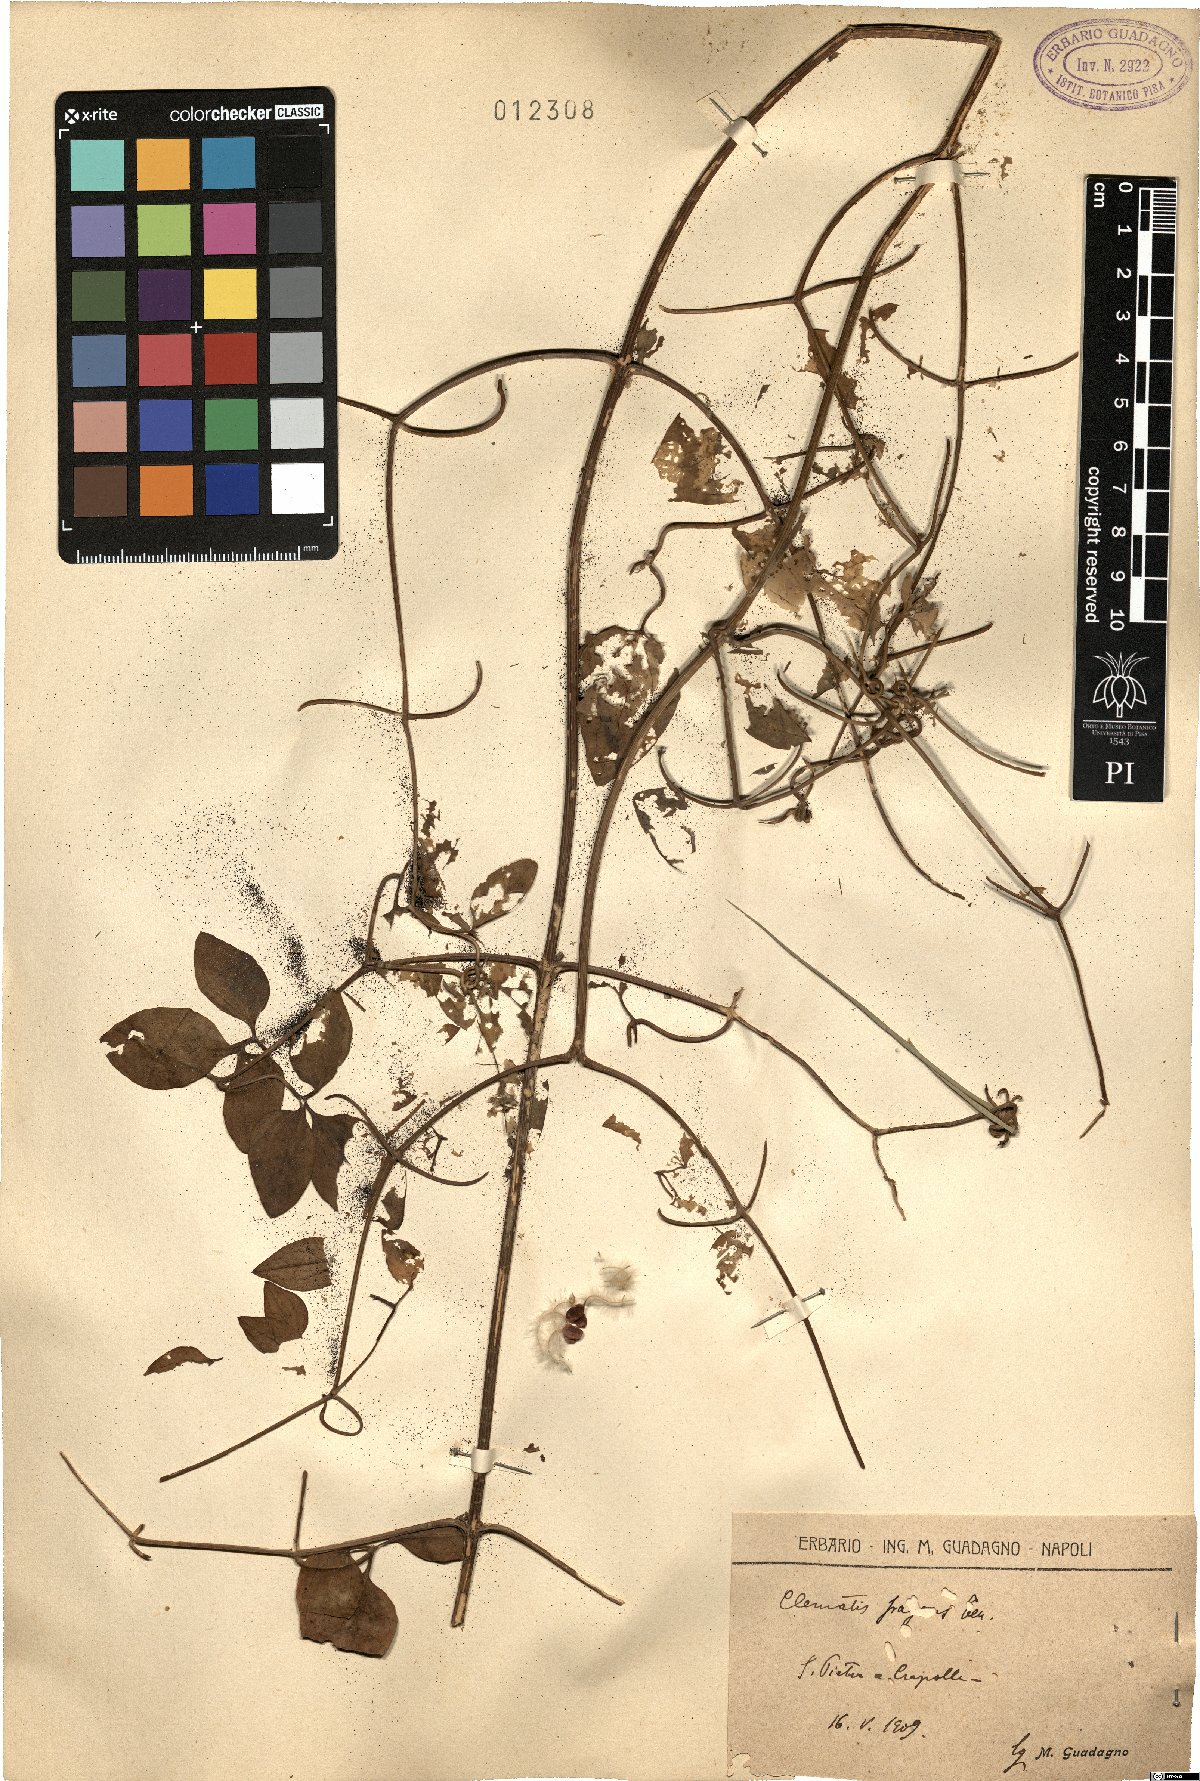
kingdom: Plantae
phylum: Tracheophyta
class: Magnoliopsida
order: Ranunculales
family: Ranunculaceae
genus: Clematis
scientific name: Clematis flammula
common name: Virgin's-bower
